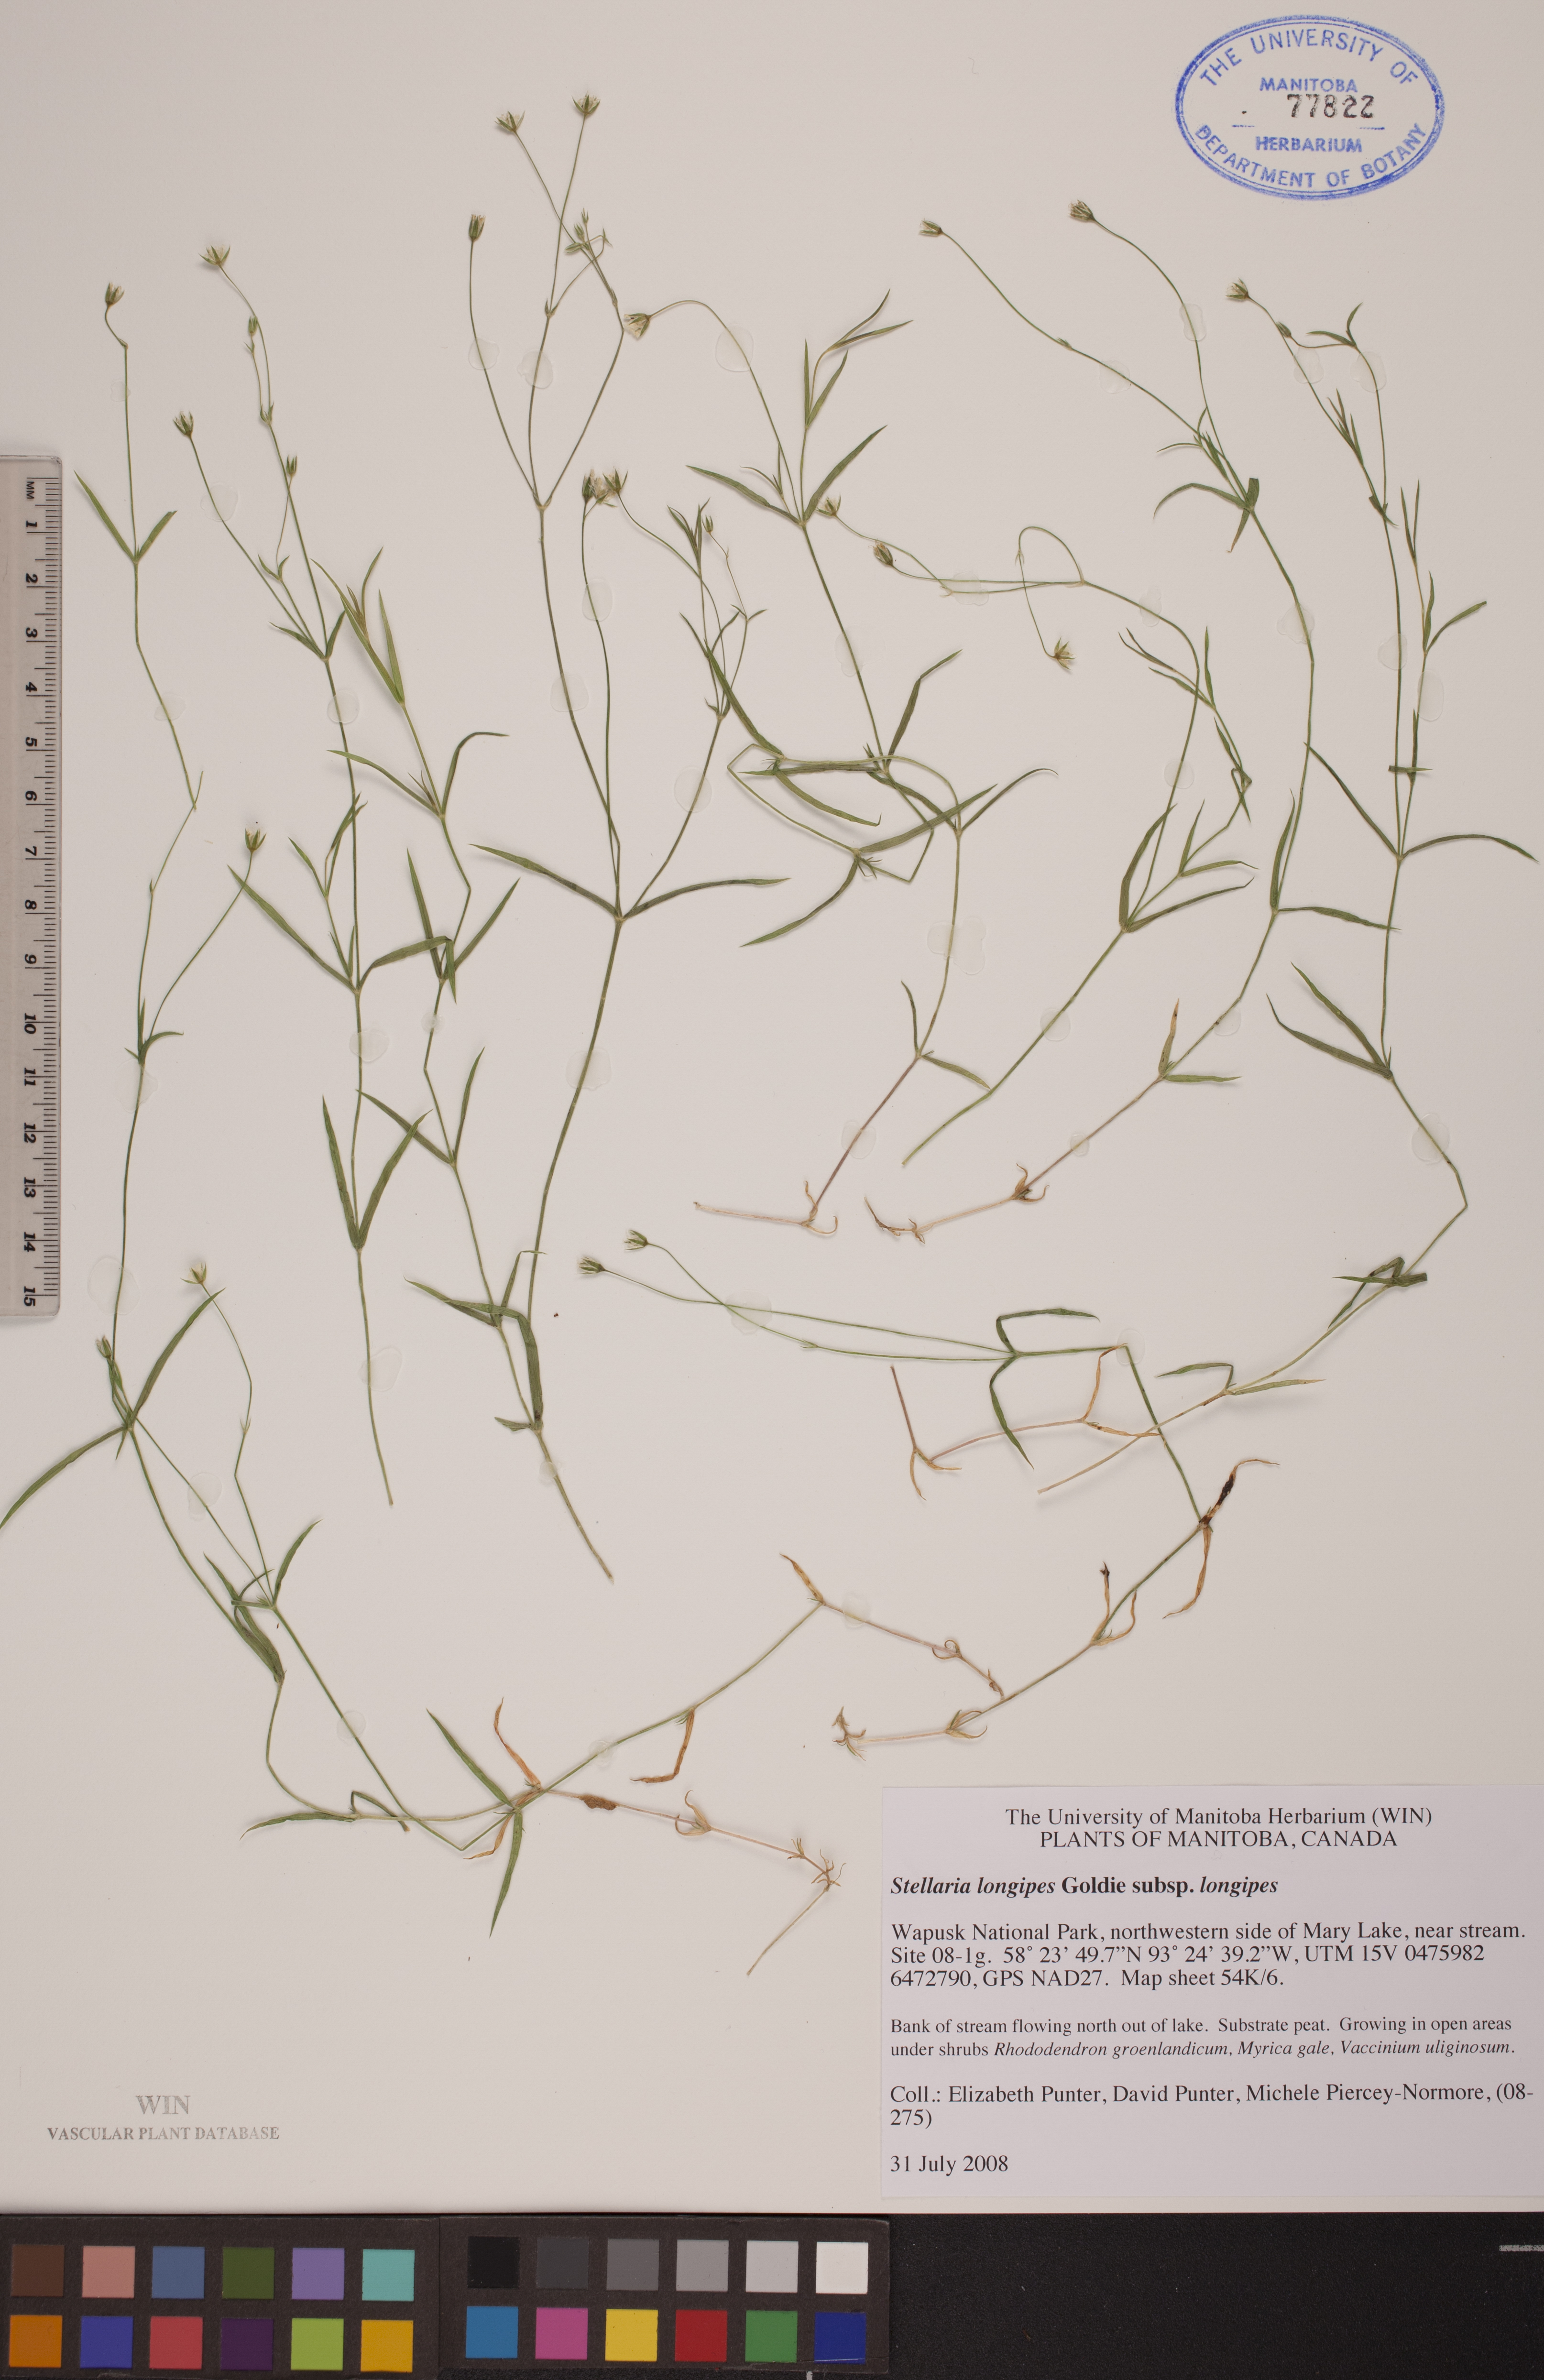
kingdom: Plantae
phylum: Tracheophyta
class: Magnoliopsida
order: Caryophyllales
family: Caryophyllaceae
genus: Stellaria
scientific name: Stellaria longipes
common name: Goldie's starwort
